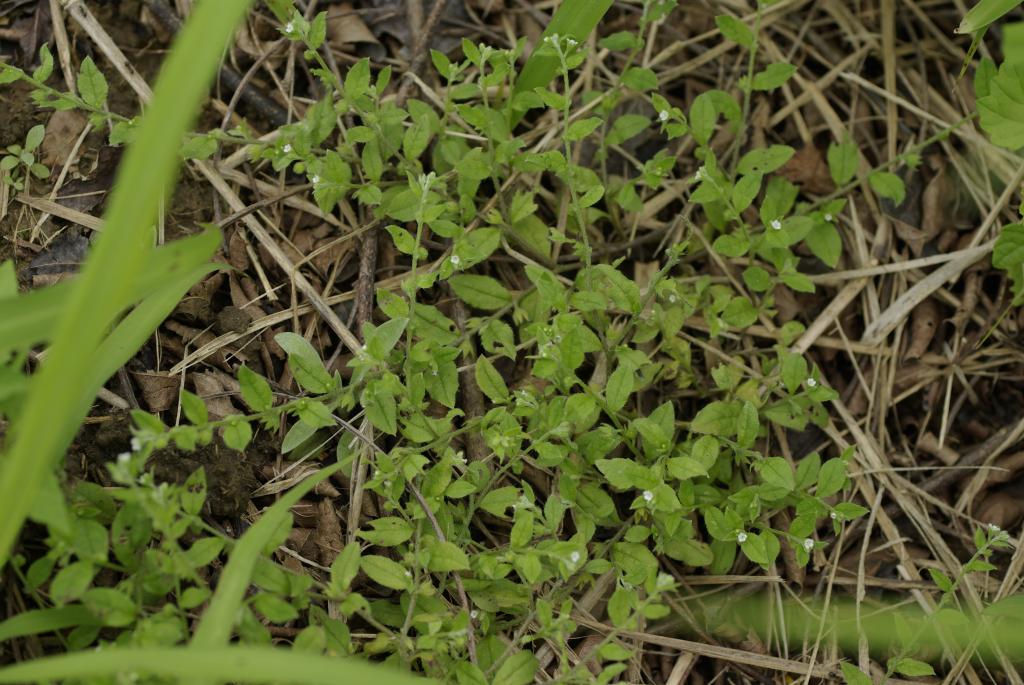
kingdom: Plantae
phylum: Tracheophyta
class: Magnoliopsida
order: Boraginales
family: Boraginaceae
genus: Bothriospermum
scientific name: Bothriospermum zeylanicum
